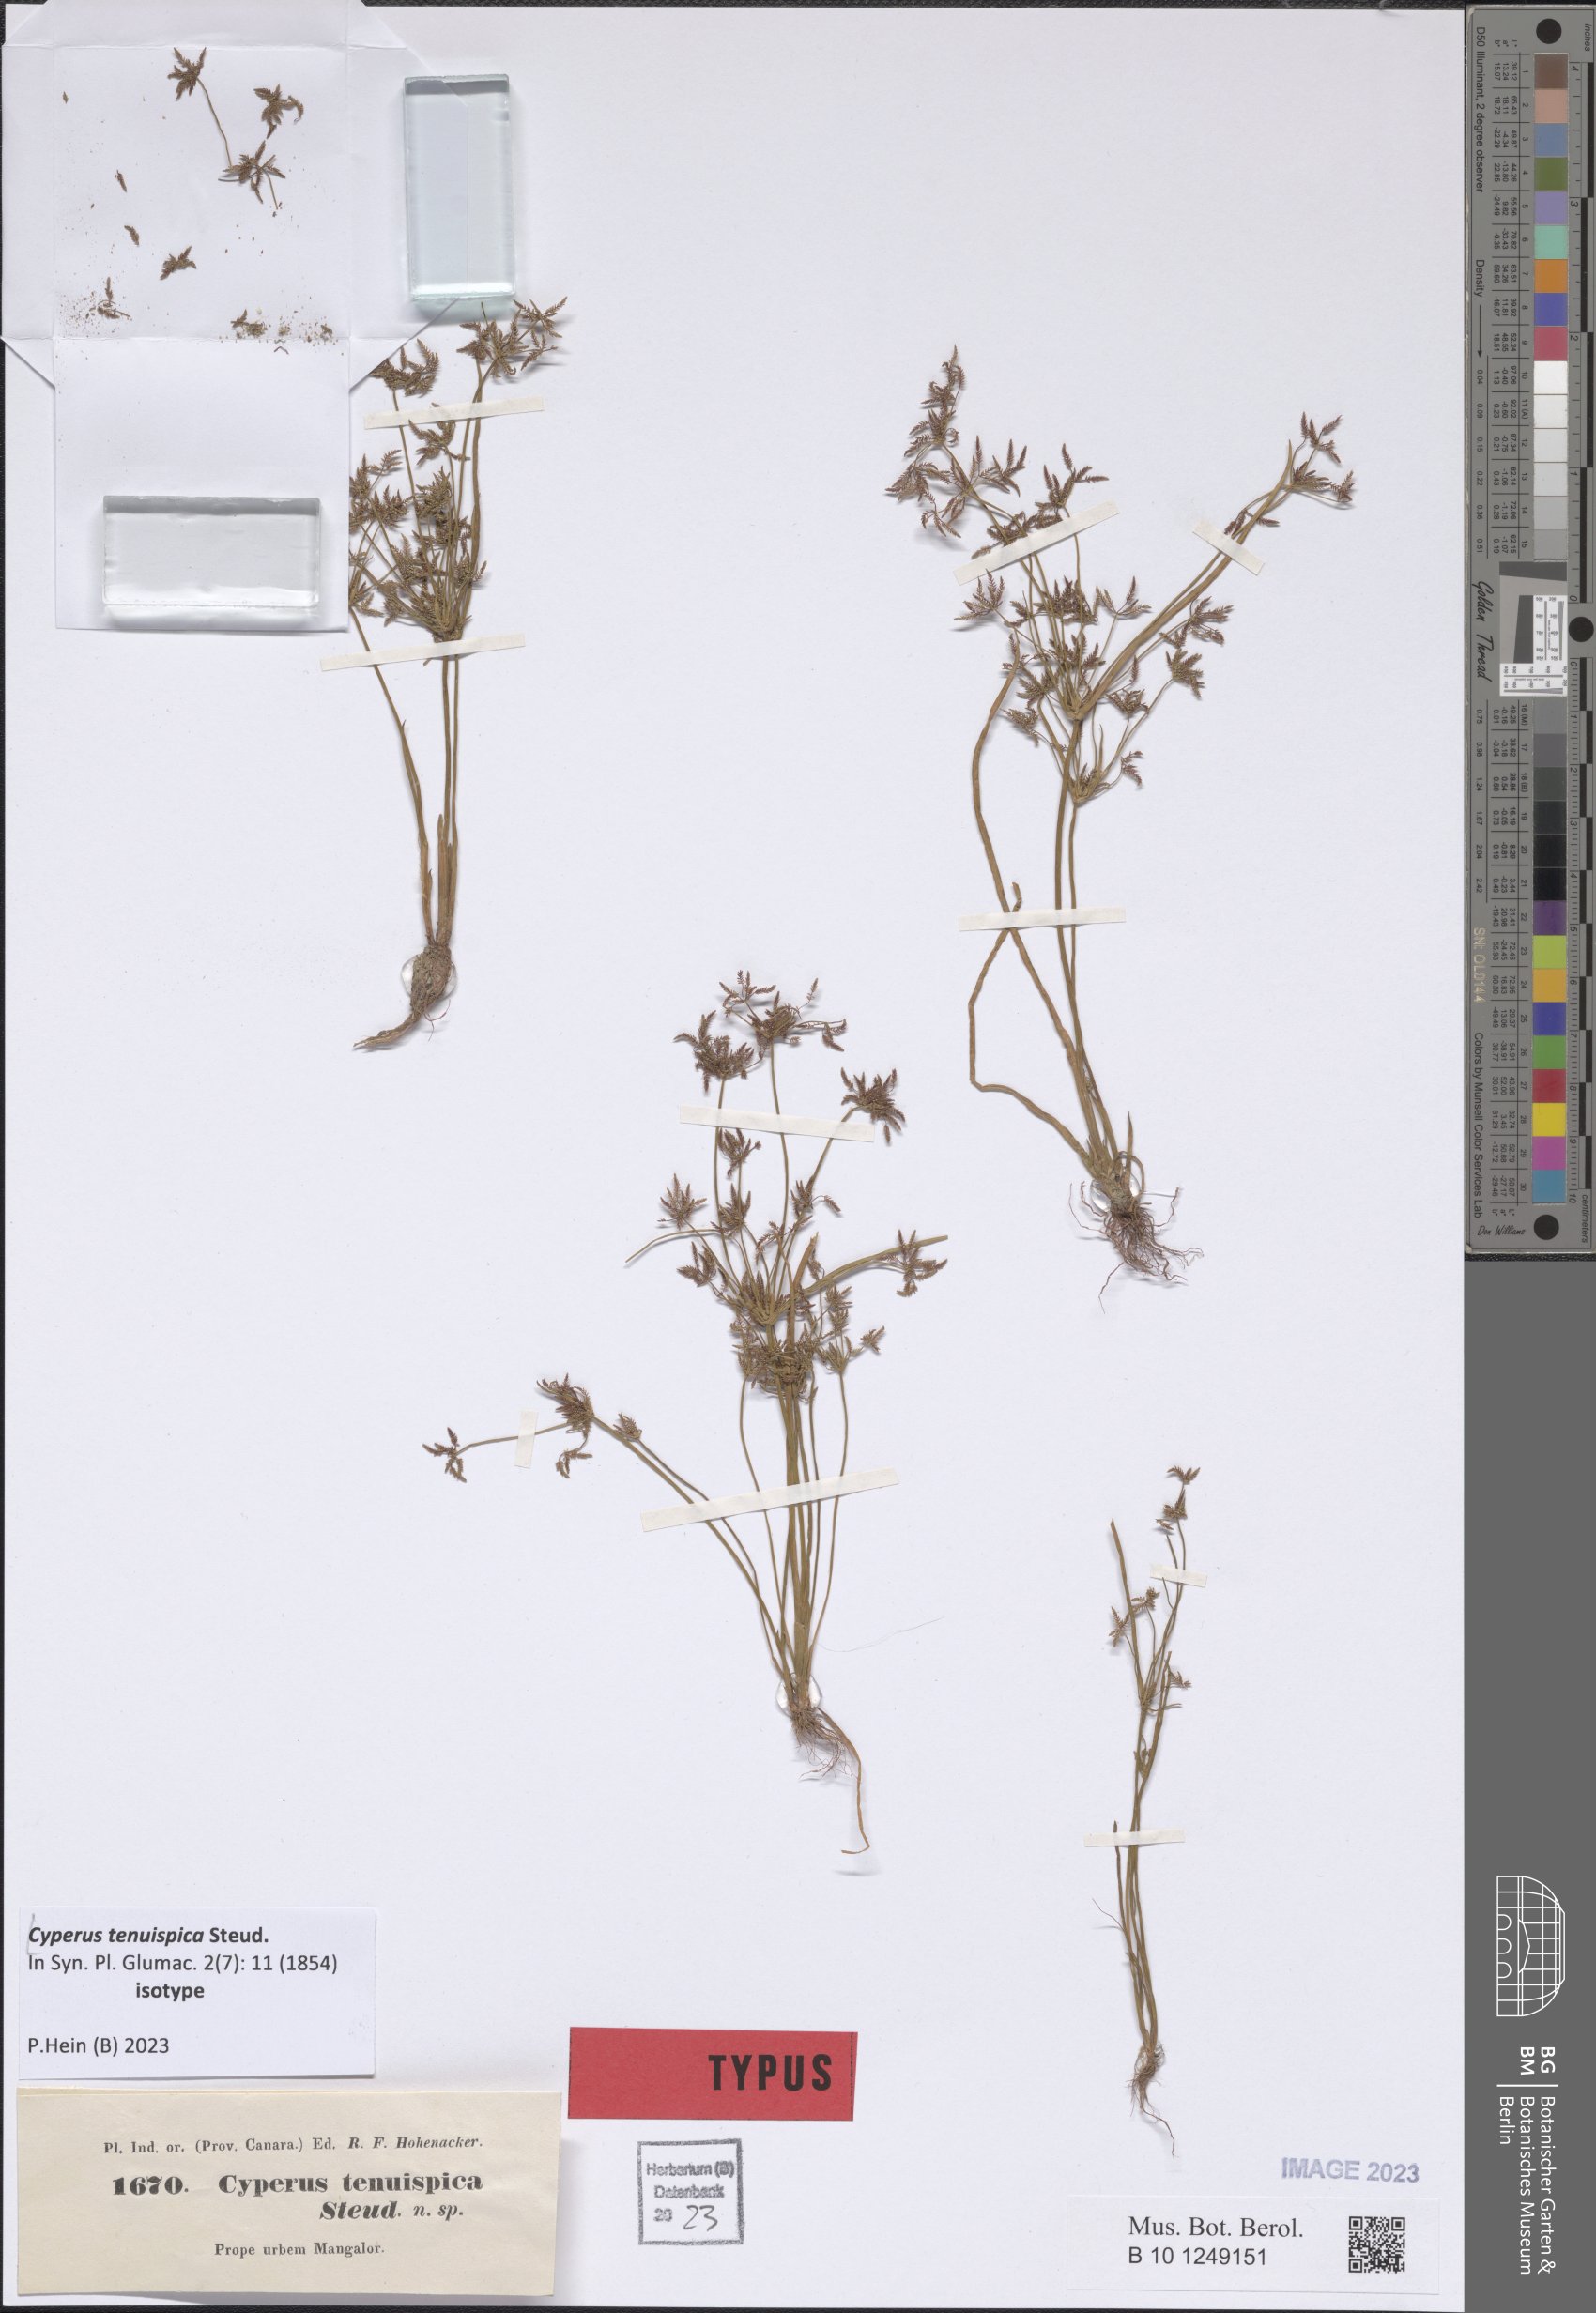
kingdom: Plantae
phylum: Tracheophyta
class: Liliopsida
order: Poales
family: Cyperaceae
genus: Cyperus
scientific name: Cyperus tenuispica
